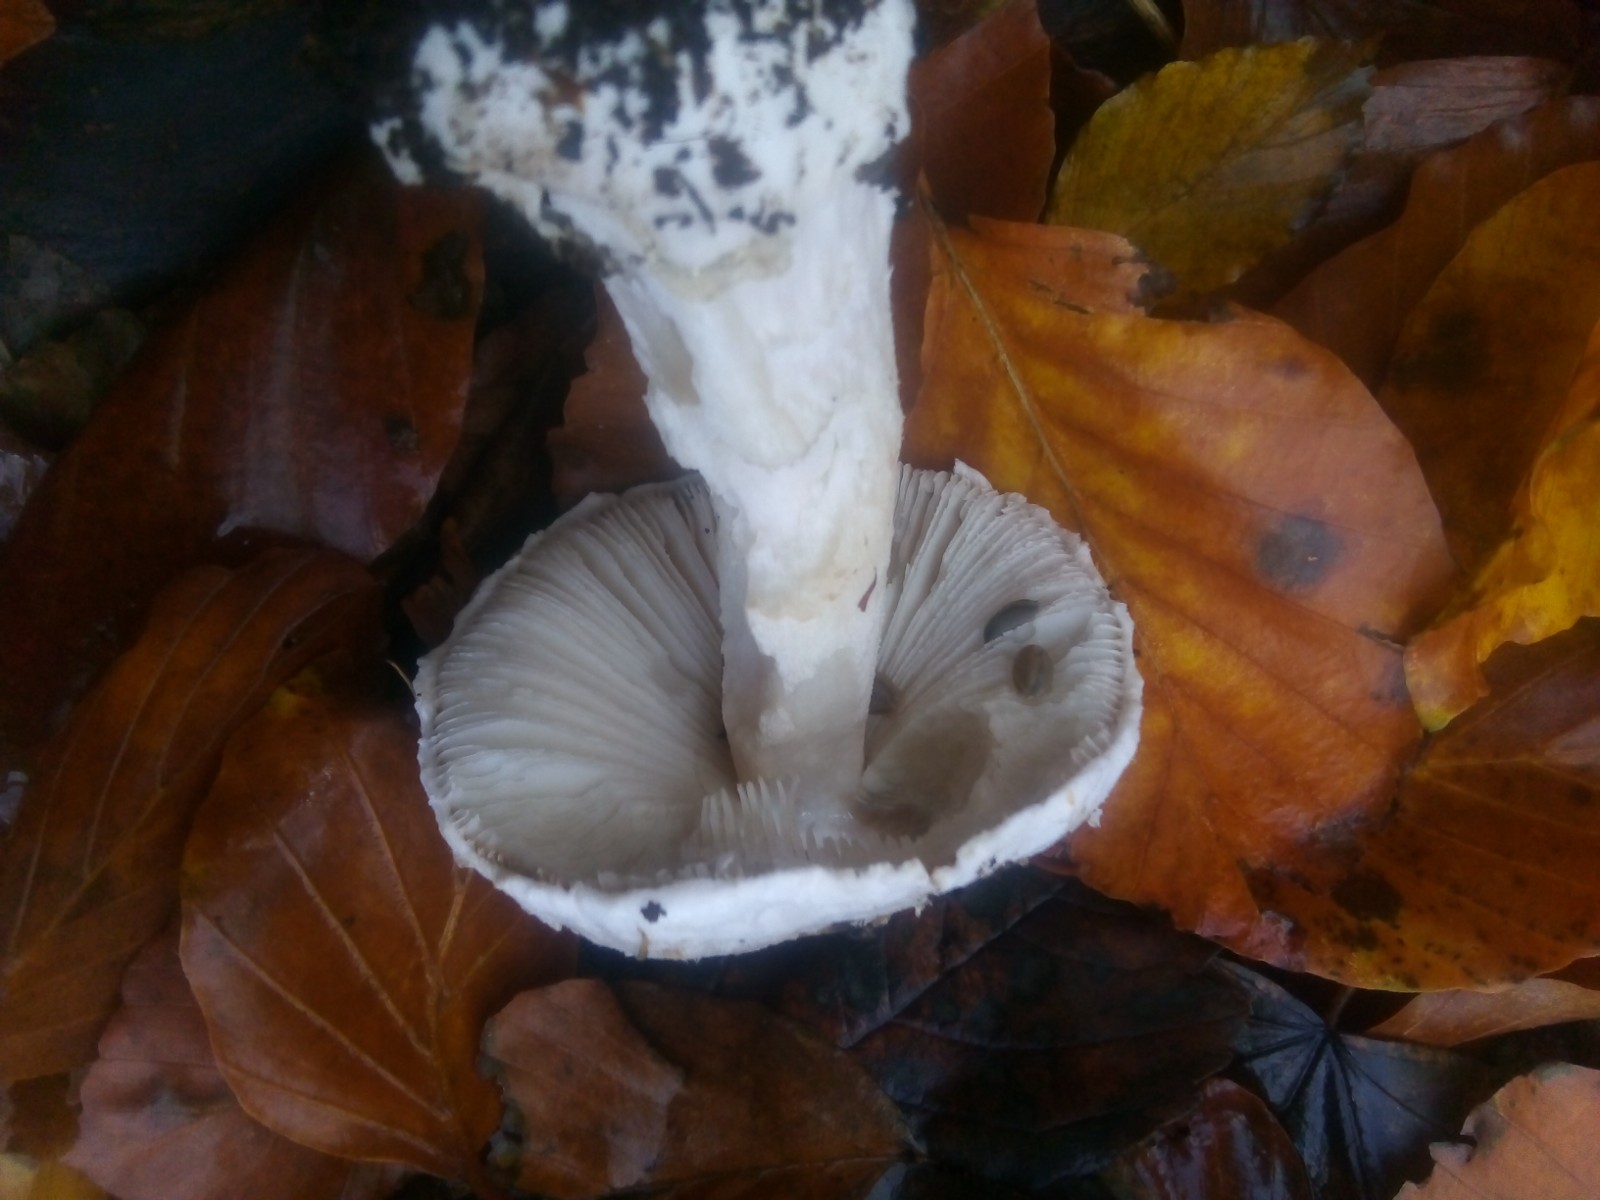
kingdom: Fungi
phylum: Basidiomycota
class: Agaricomycetes
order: Agaricales
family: Amanitaceae
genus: Amanita
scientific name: Amanita
